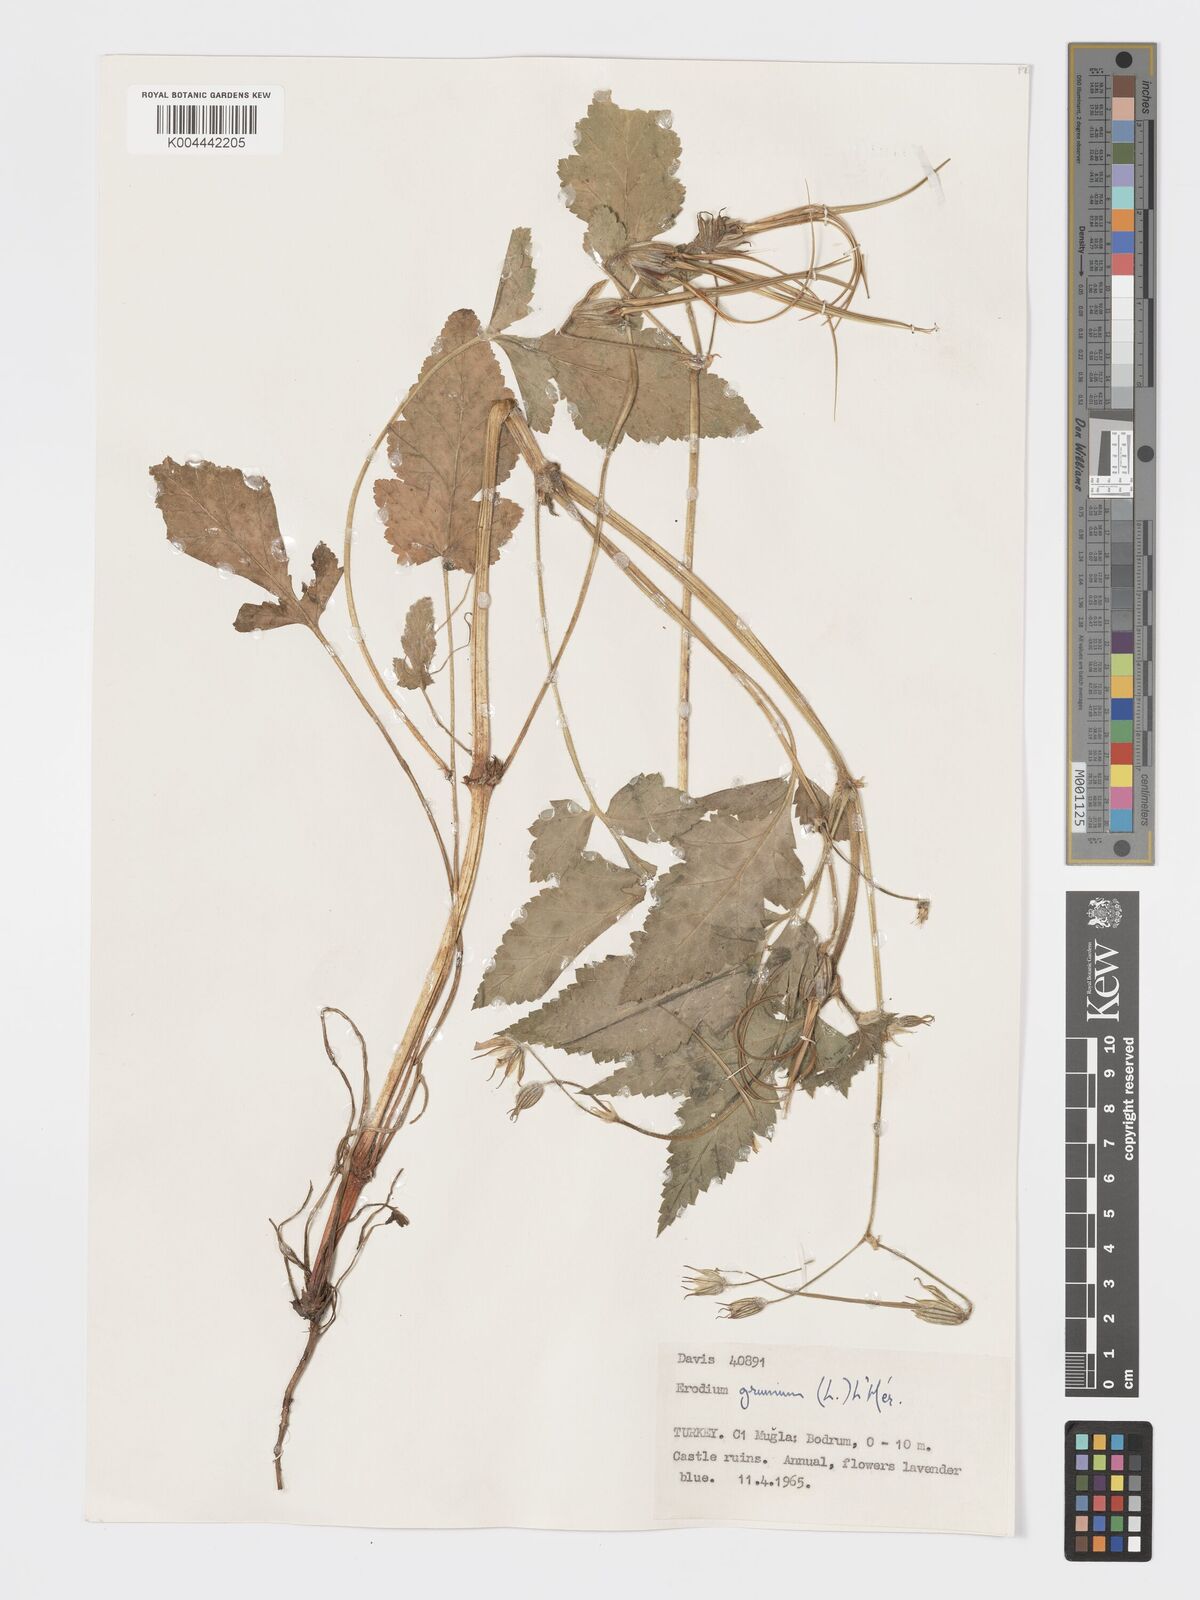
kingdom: Plantae
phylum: Tracheophyta
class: Magnoliopsida
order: Geraniales
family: Geraniaceae
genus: Erodium
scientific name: Erodium gruinum
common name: Iranian stork's bill
